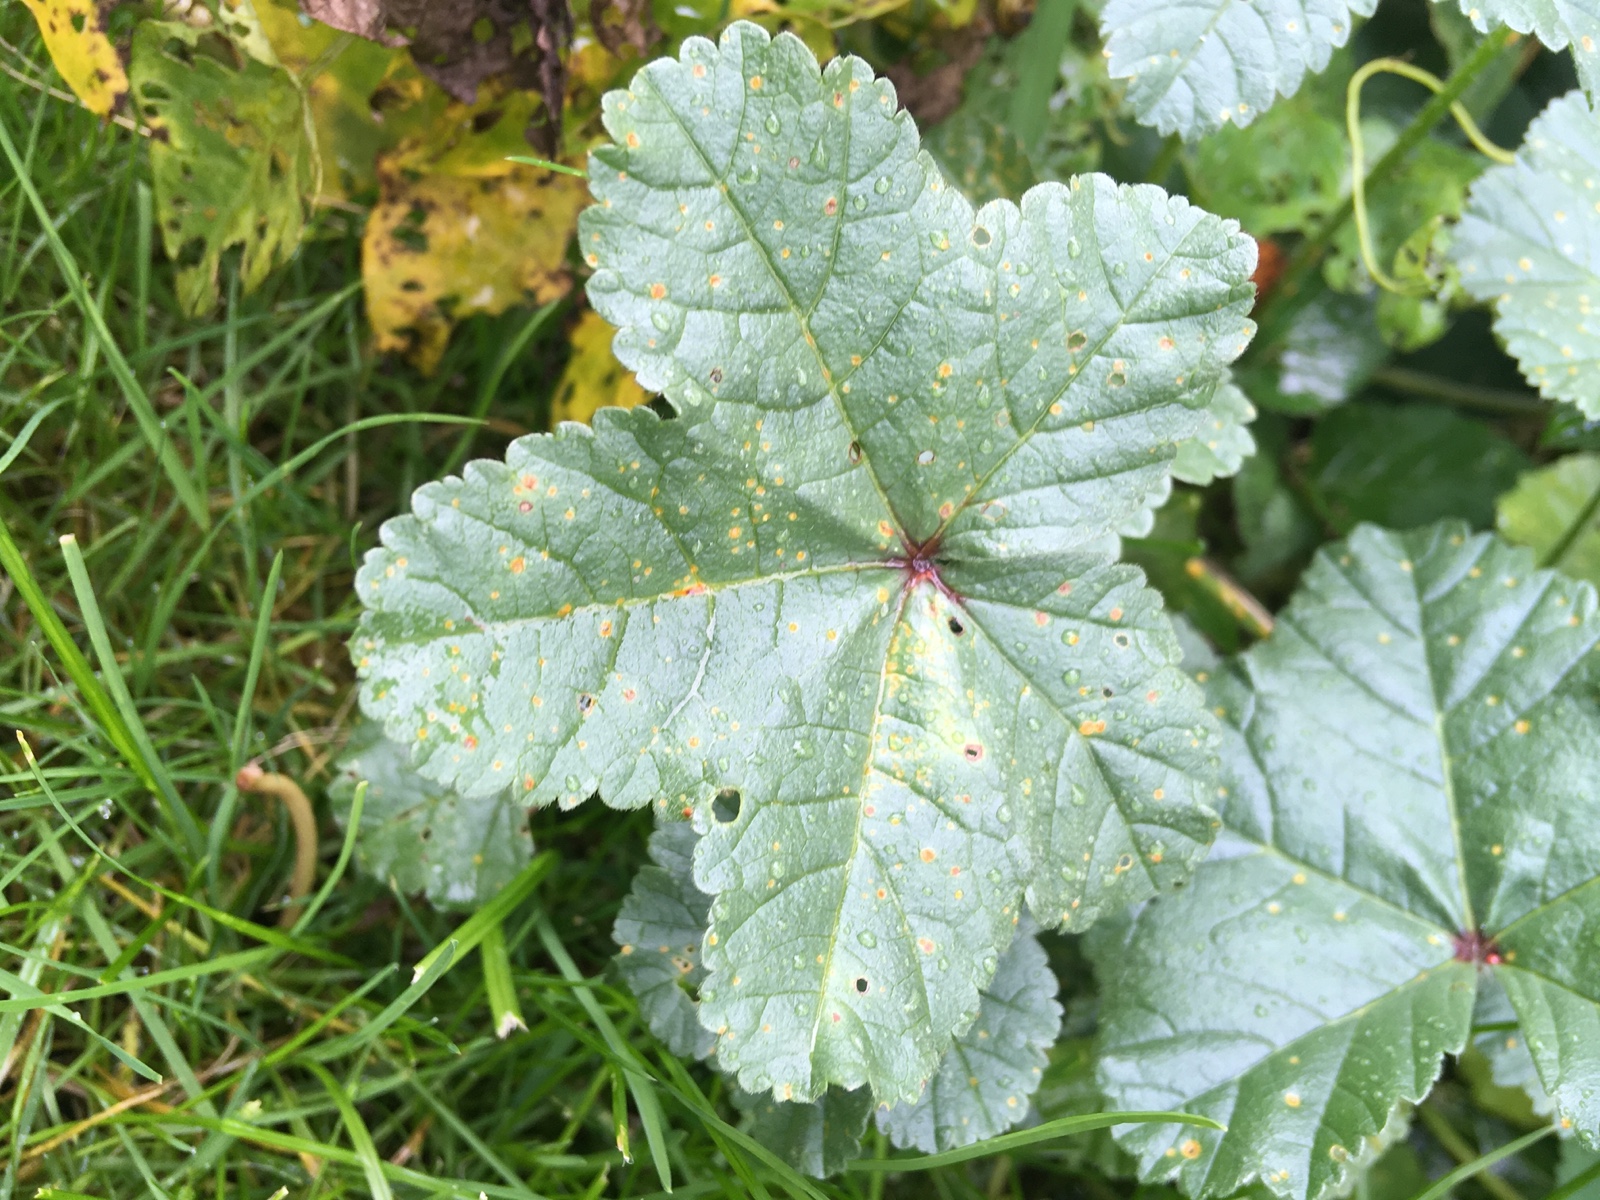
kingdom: Fungi
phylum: Basidiomycota
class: Pucciniomycetes
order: Pucciniales
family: Pucciniaceae
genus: Puccinia
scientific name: Puccinia malvacearum
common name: stokrose-tvecellerust
